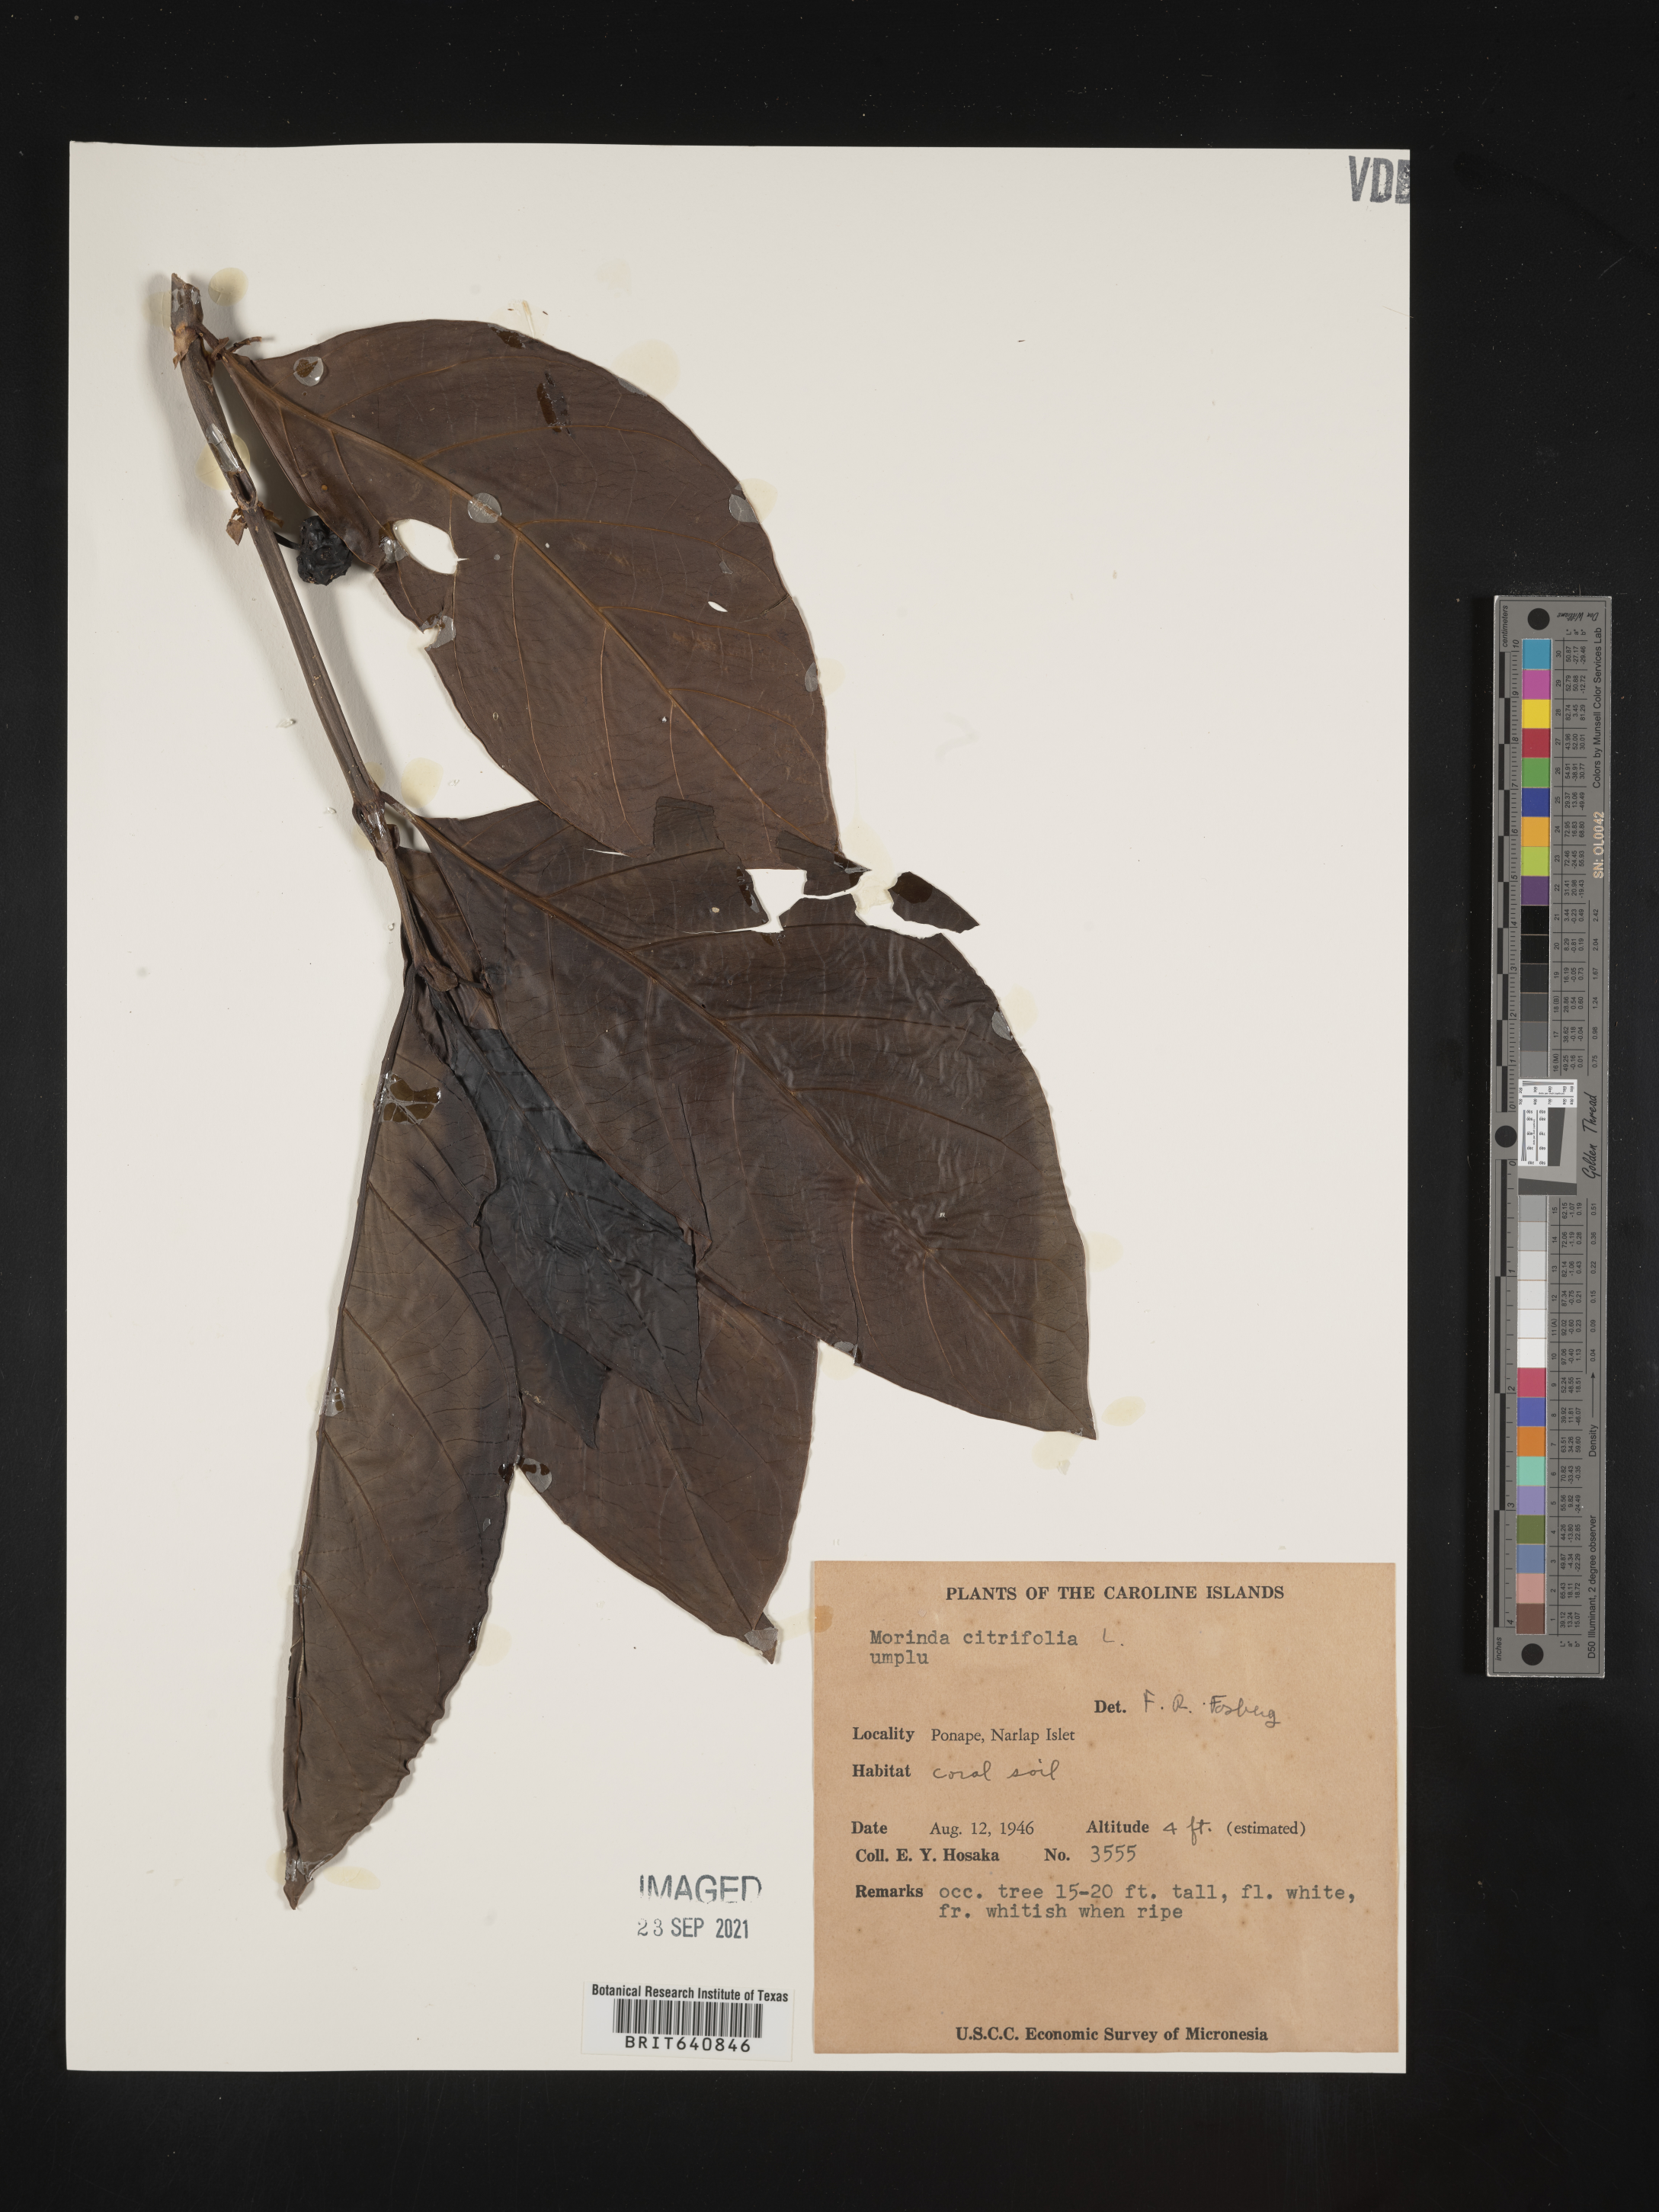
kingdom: Plantae
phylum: Tracheophyta
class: Magnoliopsida
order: Gentianales
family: Rubiaceae
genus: Morinda
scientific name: Morinda citrifolia
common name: Indian-mulberry
